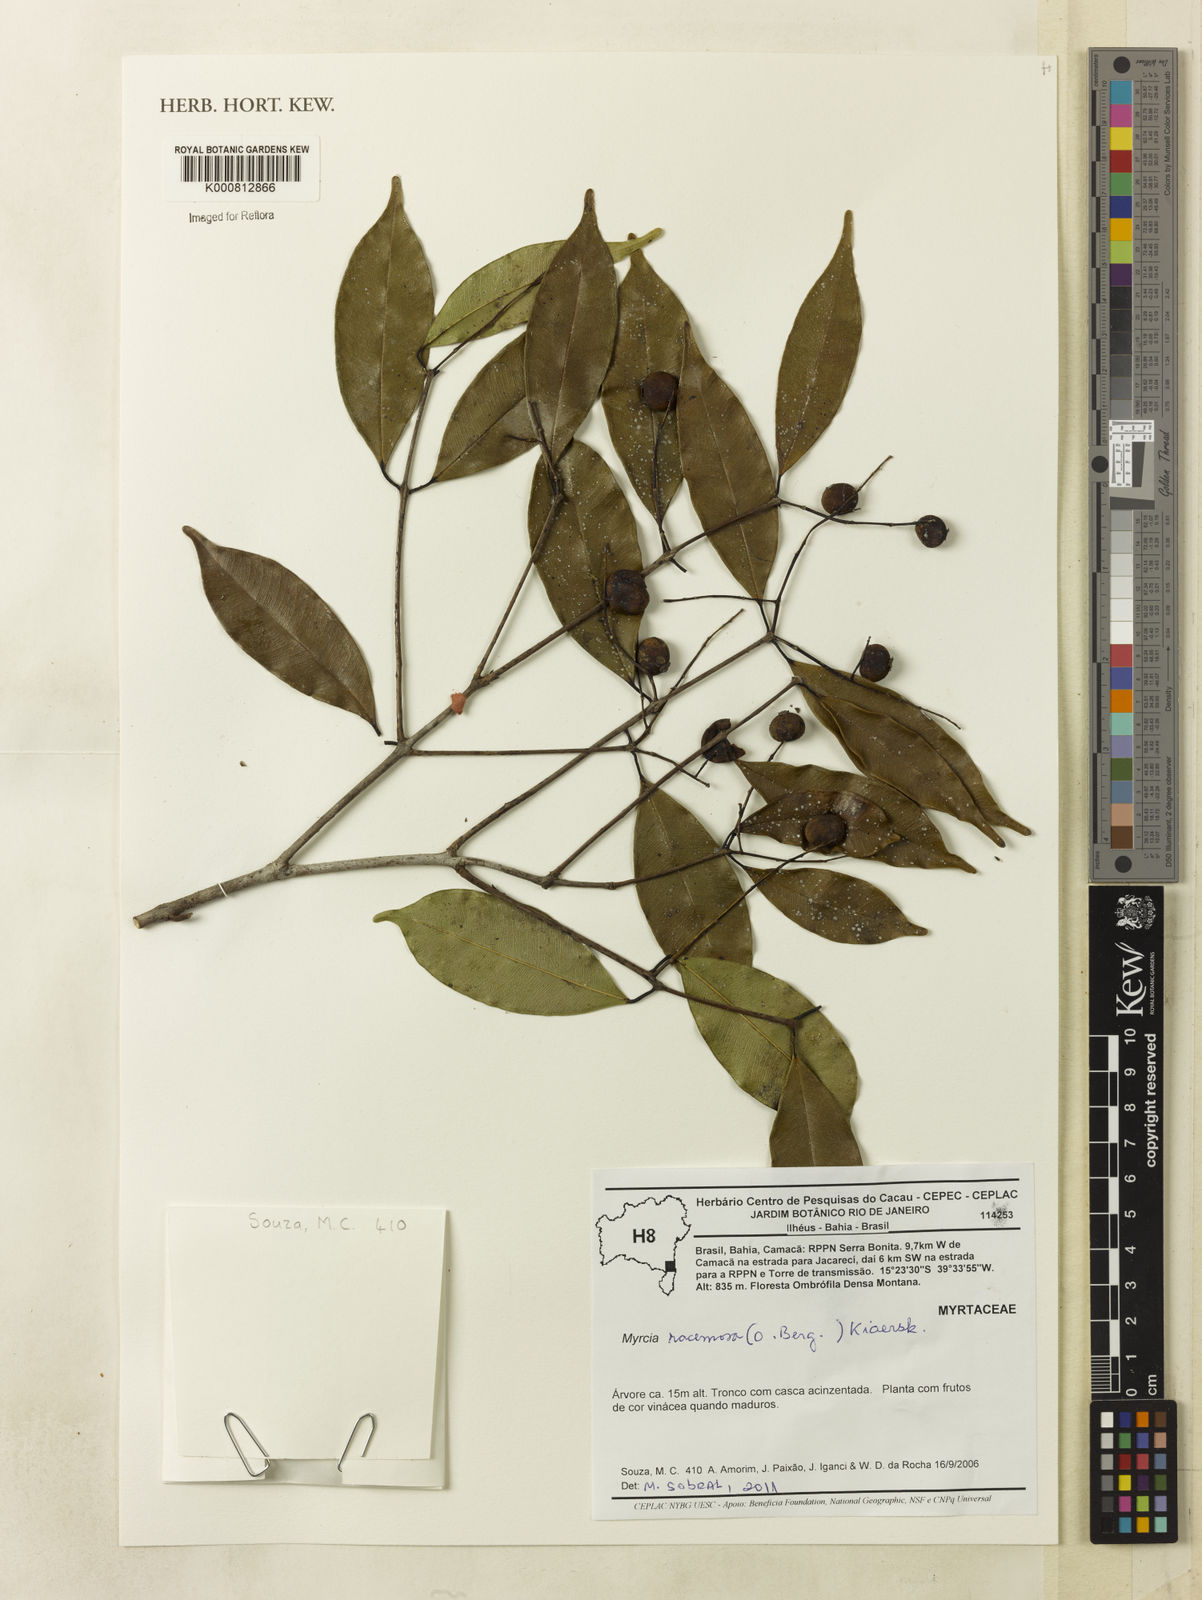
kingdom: Plantae
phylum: Tracheophyta
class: Magnoliopsida
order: Myrtales
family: Myrtaceae
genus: Myrcia
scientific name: Myrcia racemosa
